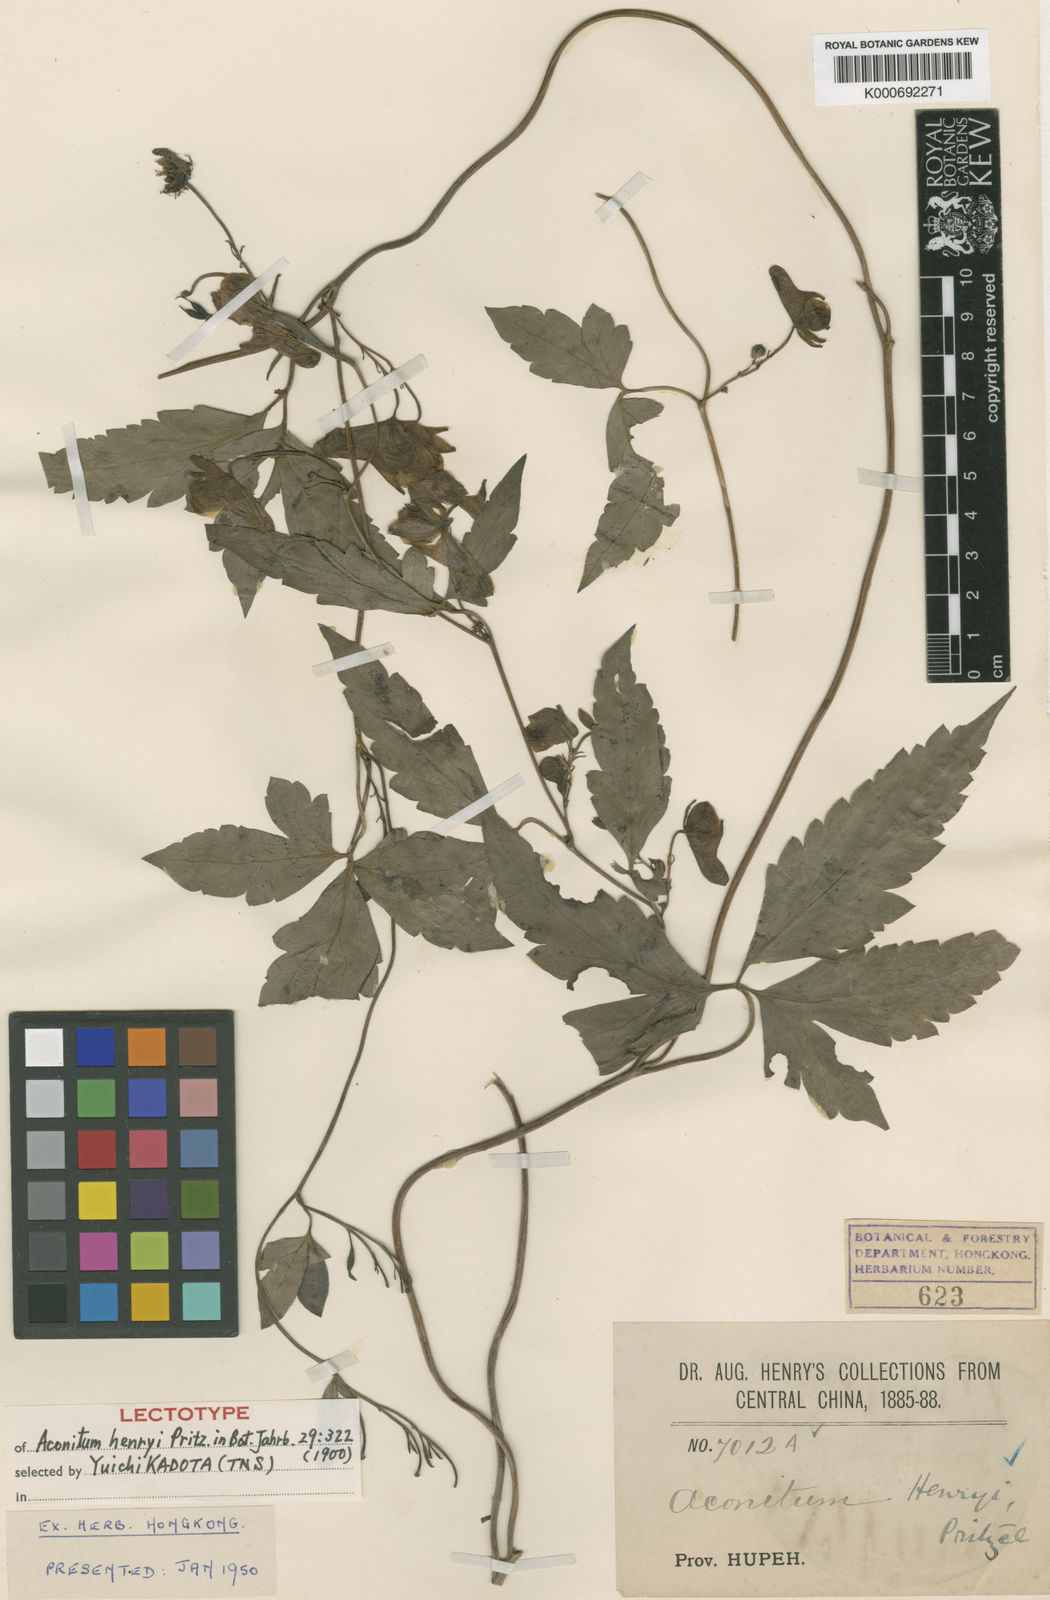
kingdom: Plantae
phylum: Tracheophyta
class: Magnoliopsida
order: Ranunculales
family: Ranunculaceae
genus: Aconitum
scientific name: Aconitum
